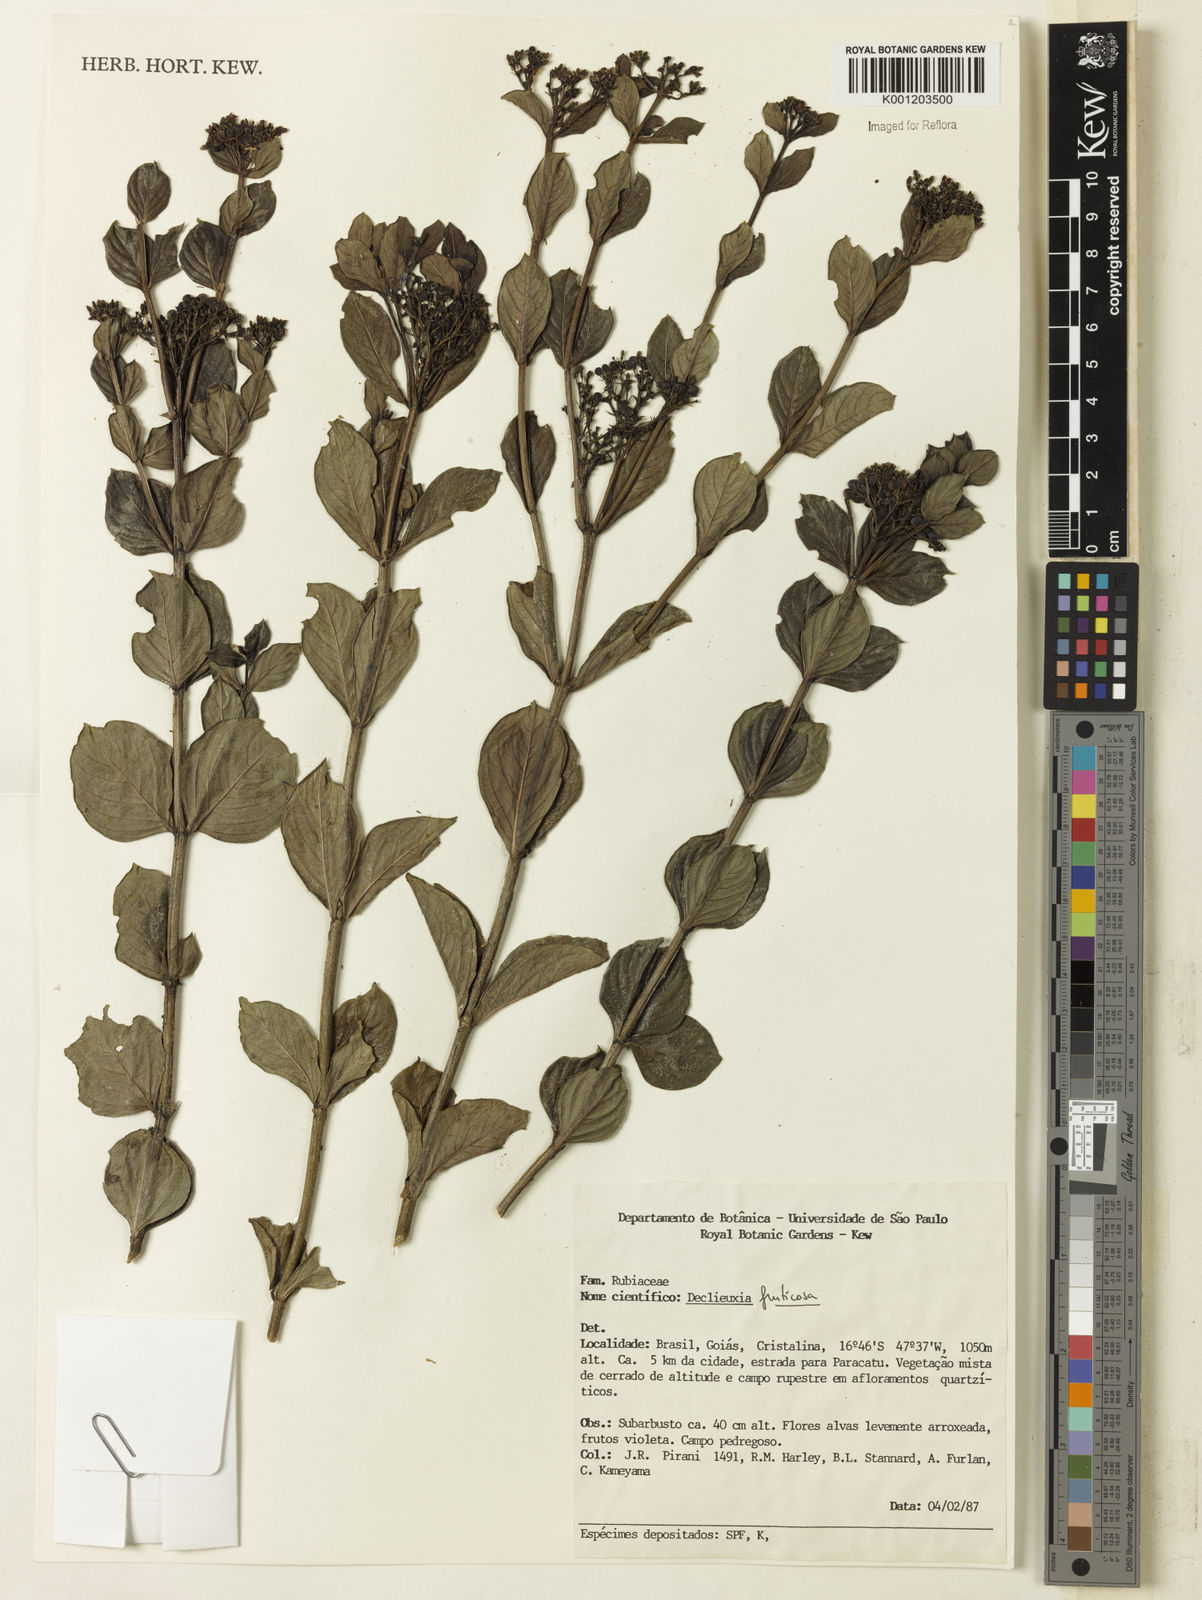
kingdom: Plantae
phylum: Tracheophyta
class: Magnoliopsida
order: Gentianales
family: Rubiaceae
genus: Declieuxia
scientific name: Declieuxia fruticosa
